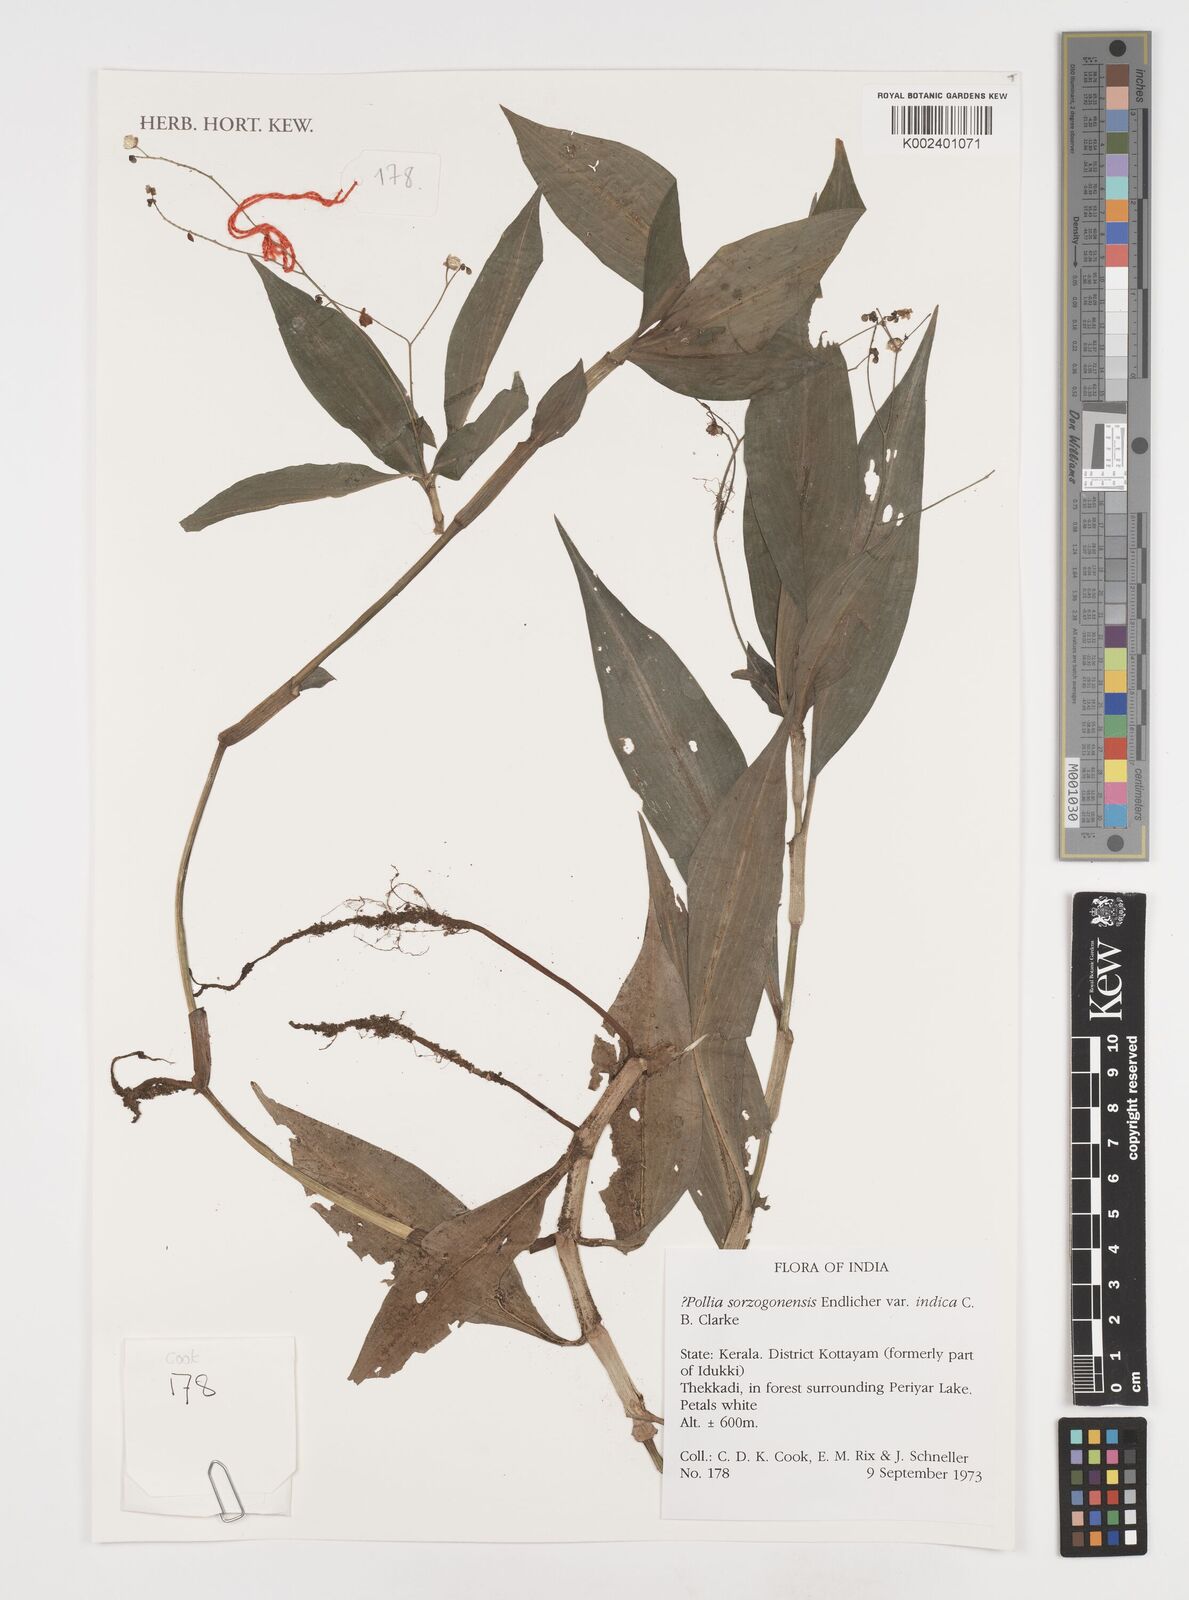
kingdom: Plantae
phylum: Tracheophyta
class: Liliopsida
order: Commelinales
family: Commelinaceae
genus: Pollia
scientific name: Pollia secundiflora
